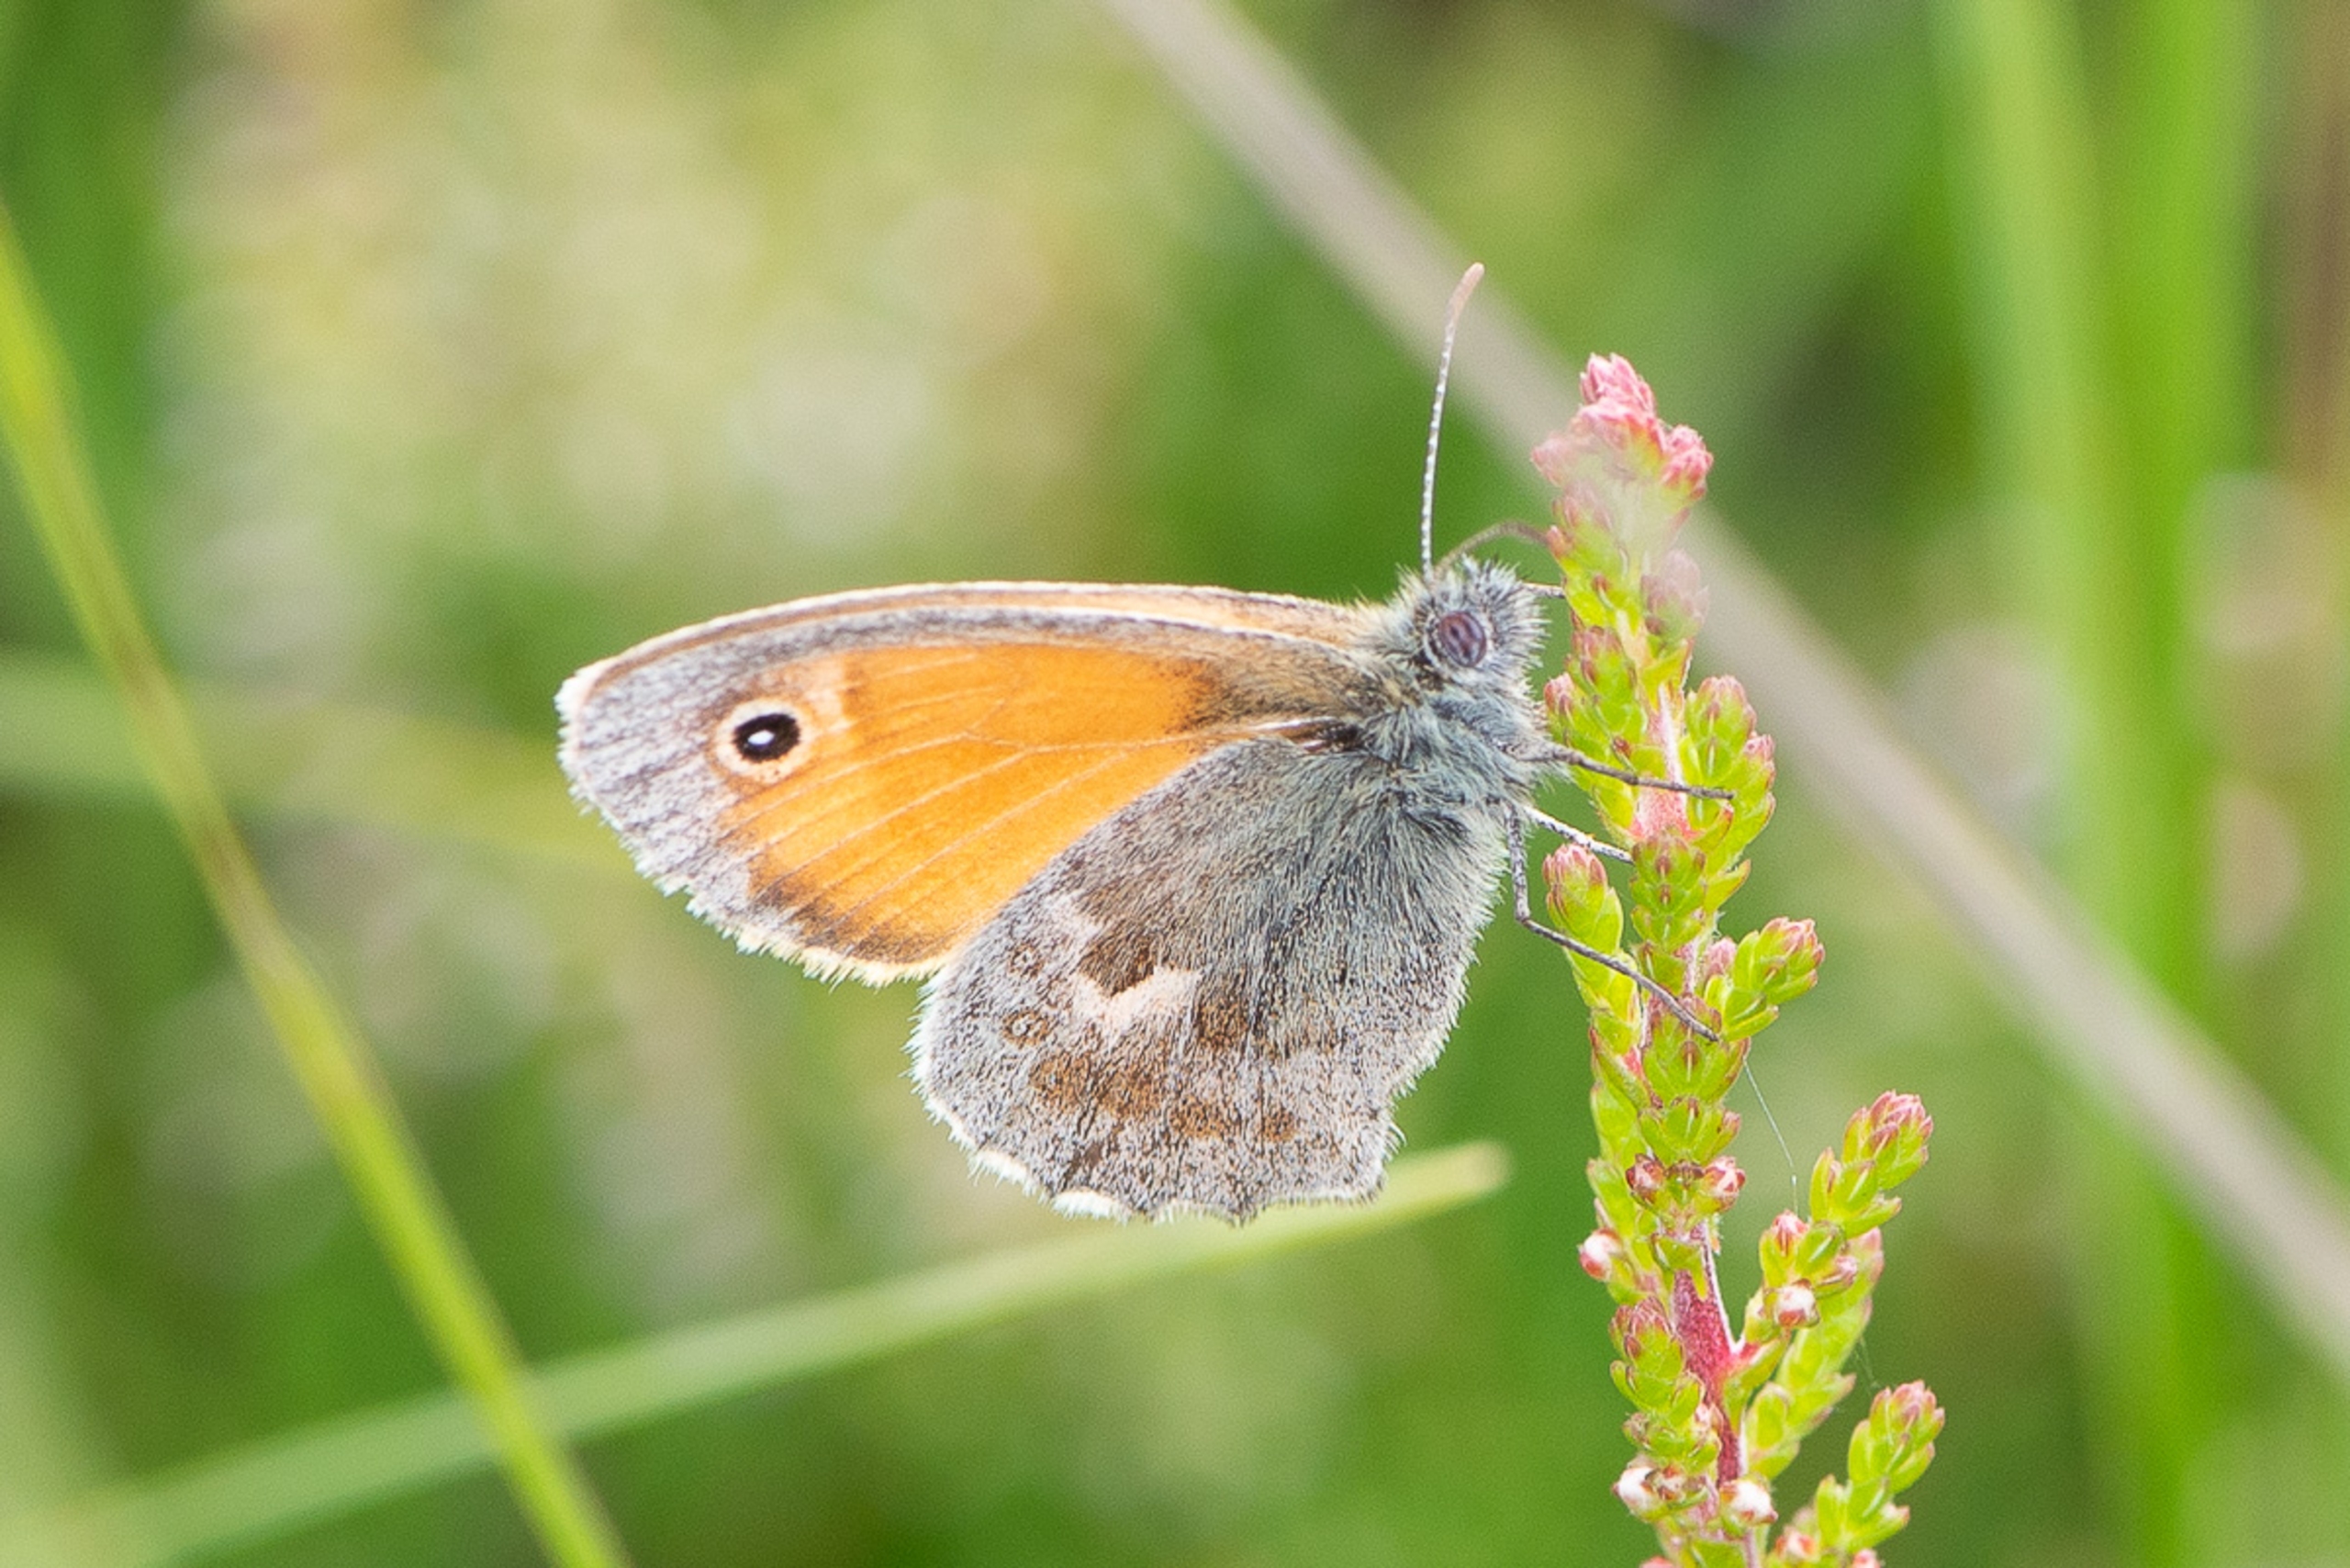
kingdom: Animalia
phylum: Arthropoda
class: Insecta
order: Lepidoptera
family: Nymphalidae
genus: Coenonympha
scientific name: Coenonympha pamphilus
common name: Okkergul randøje
